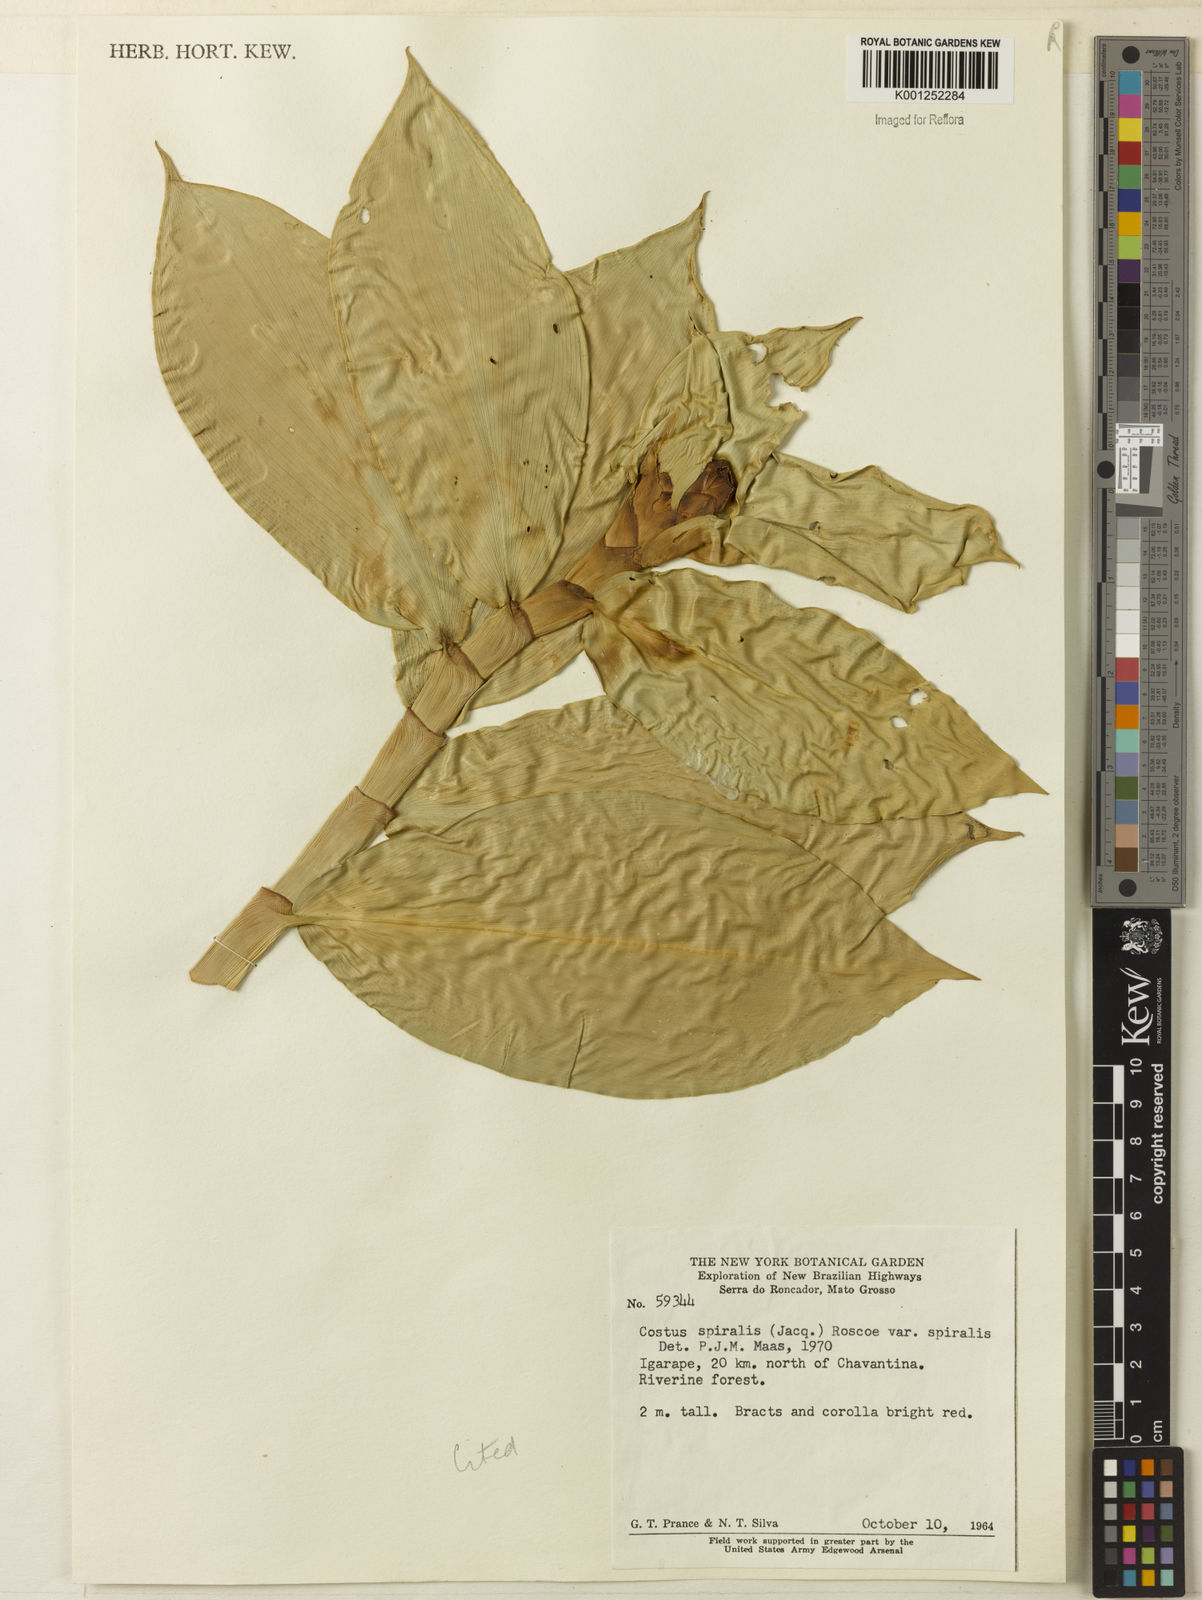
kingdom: Plantae
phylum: Tracheophyta
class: Liliopsida
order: Zingiberales
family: Costaceae
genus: Costus
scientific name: Costus spiralis
